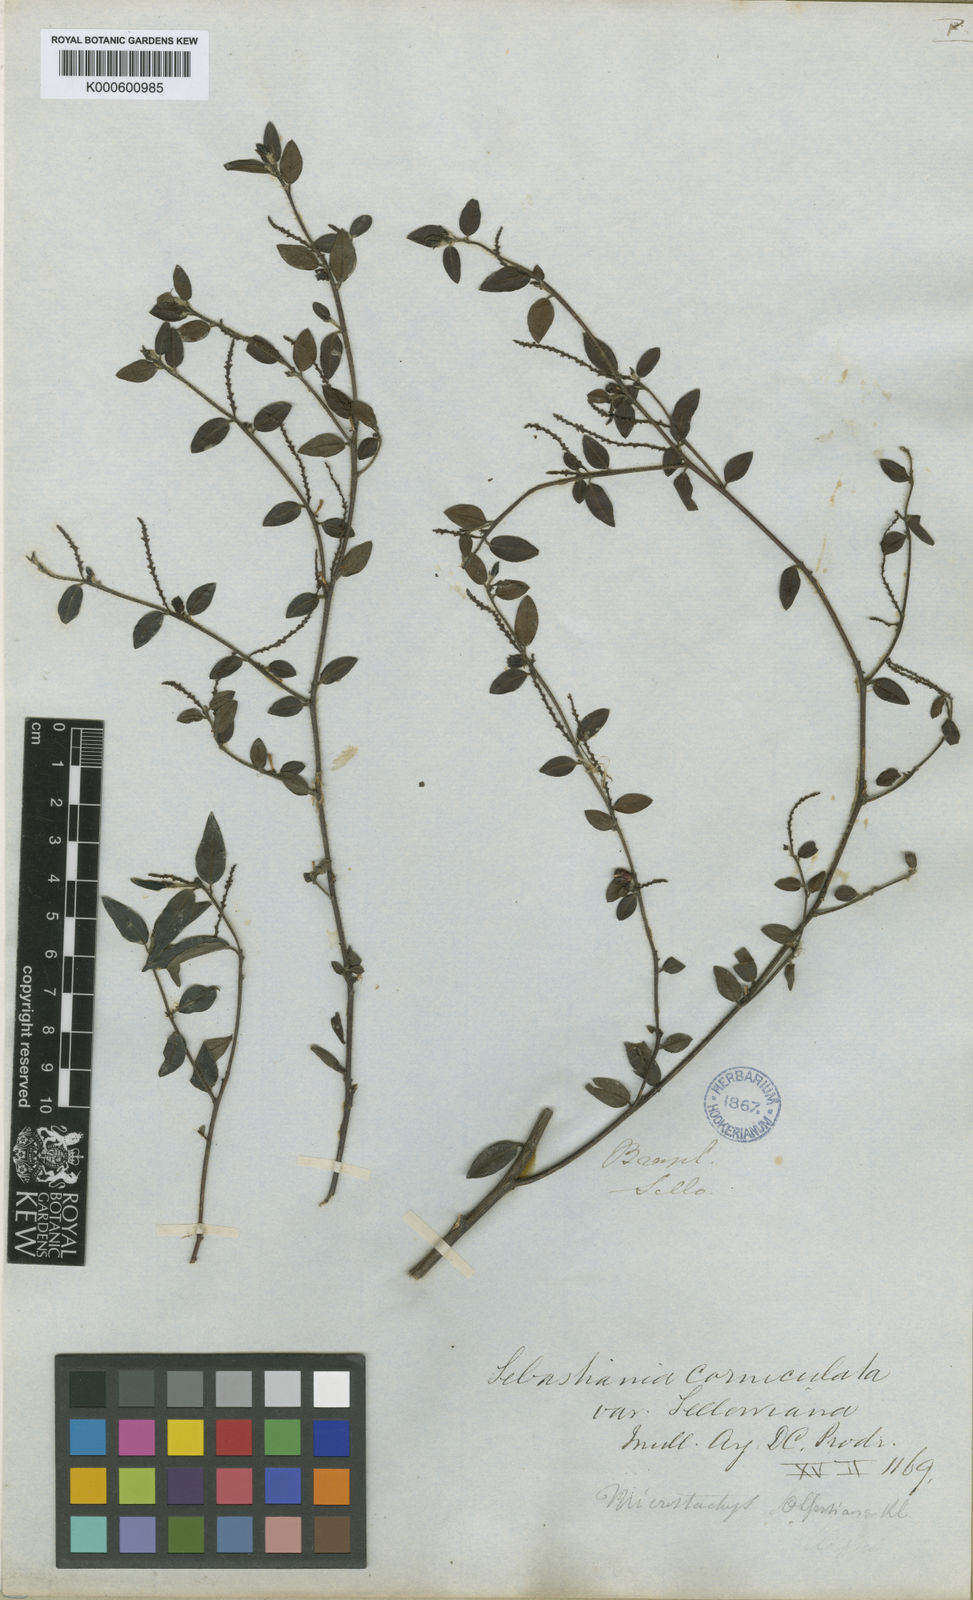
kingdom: Plantae
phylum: Tracheophyta
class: Magnoliopsida
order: Malpighiales
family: Euphorbiaceae
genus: Sebastiania
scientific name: Sebastiania
